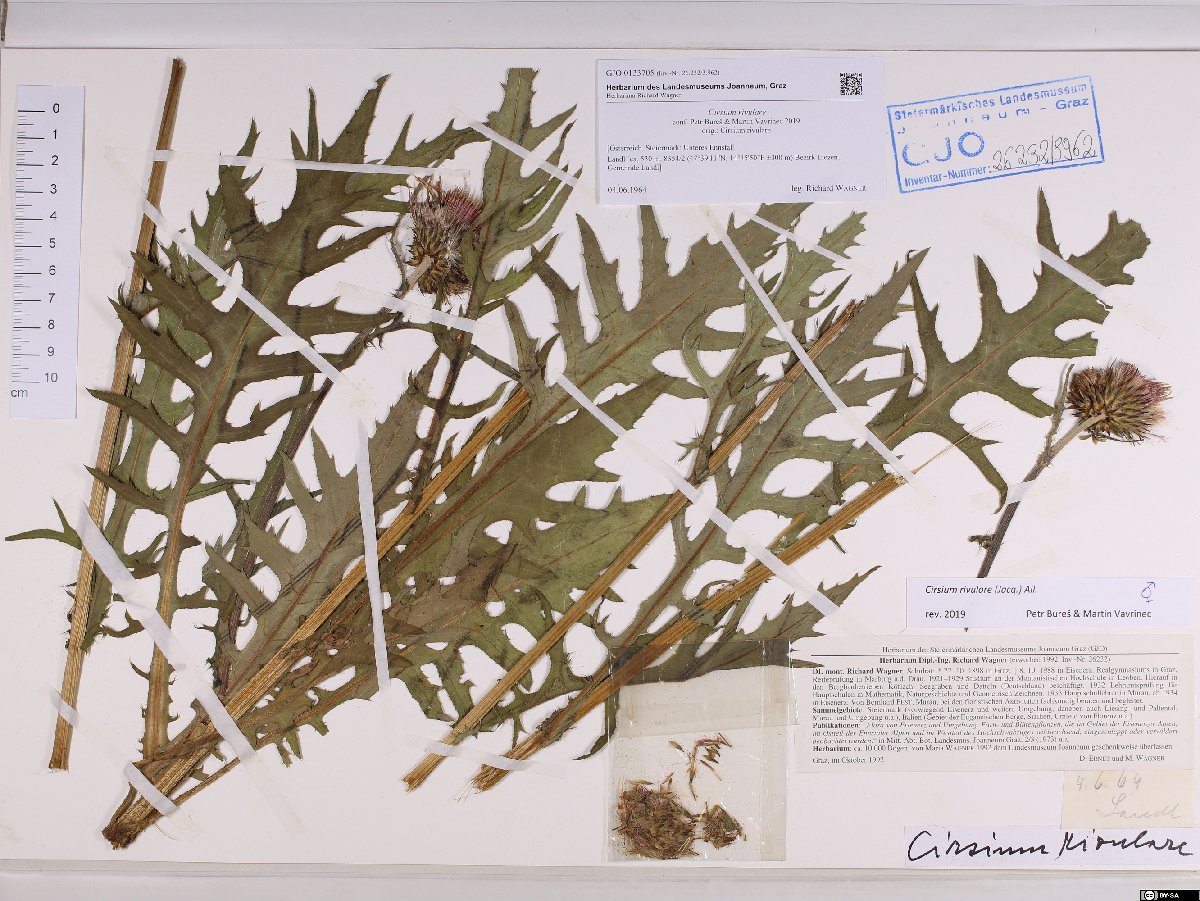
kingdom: Plantae
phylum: Tracheophyta
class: Magnoliopsida
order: Asterales
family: Asteraceae
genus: Cirsium
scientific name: Cirsium rivulare
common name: Brook thistle
